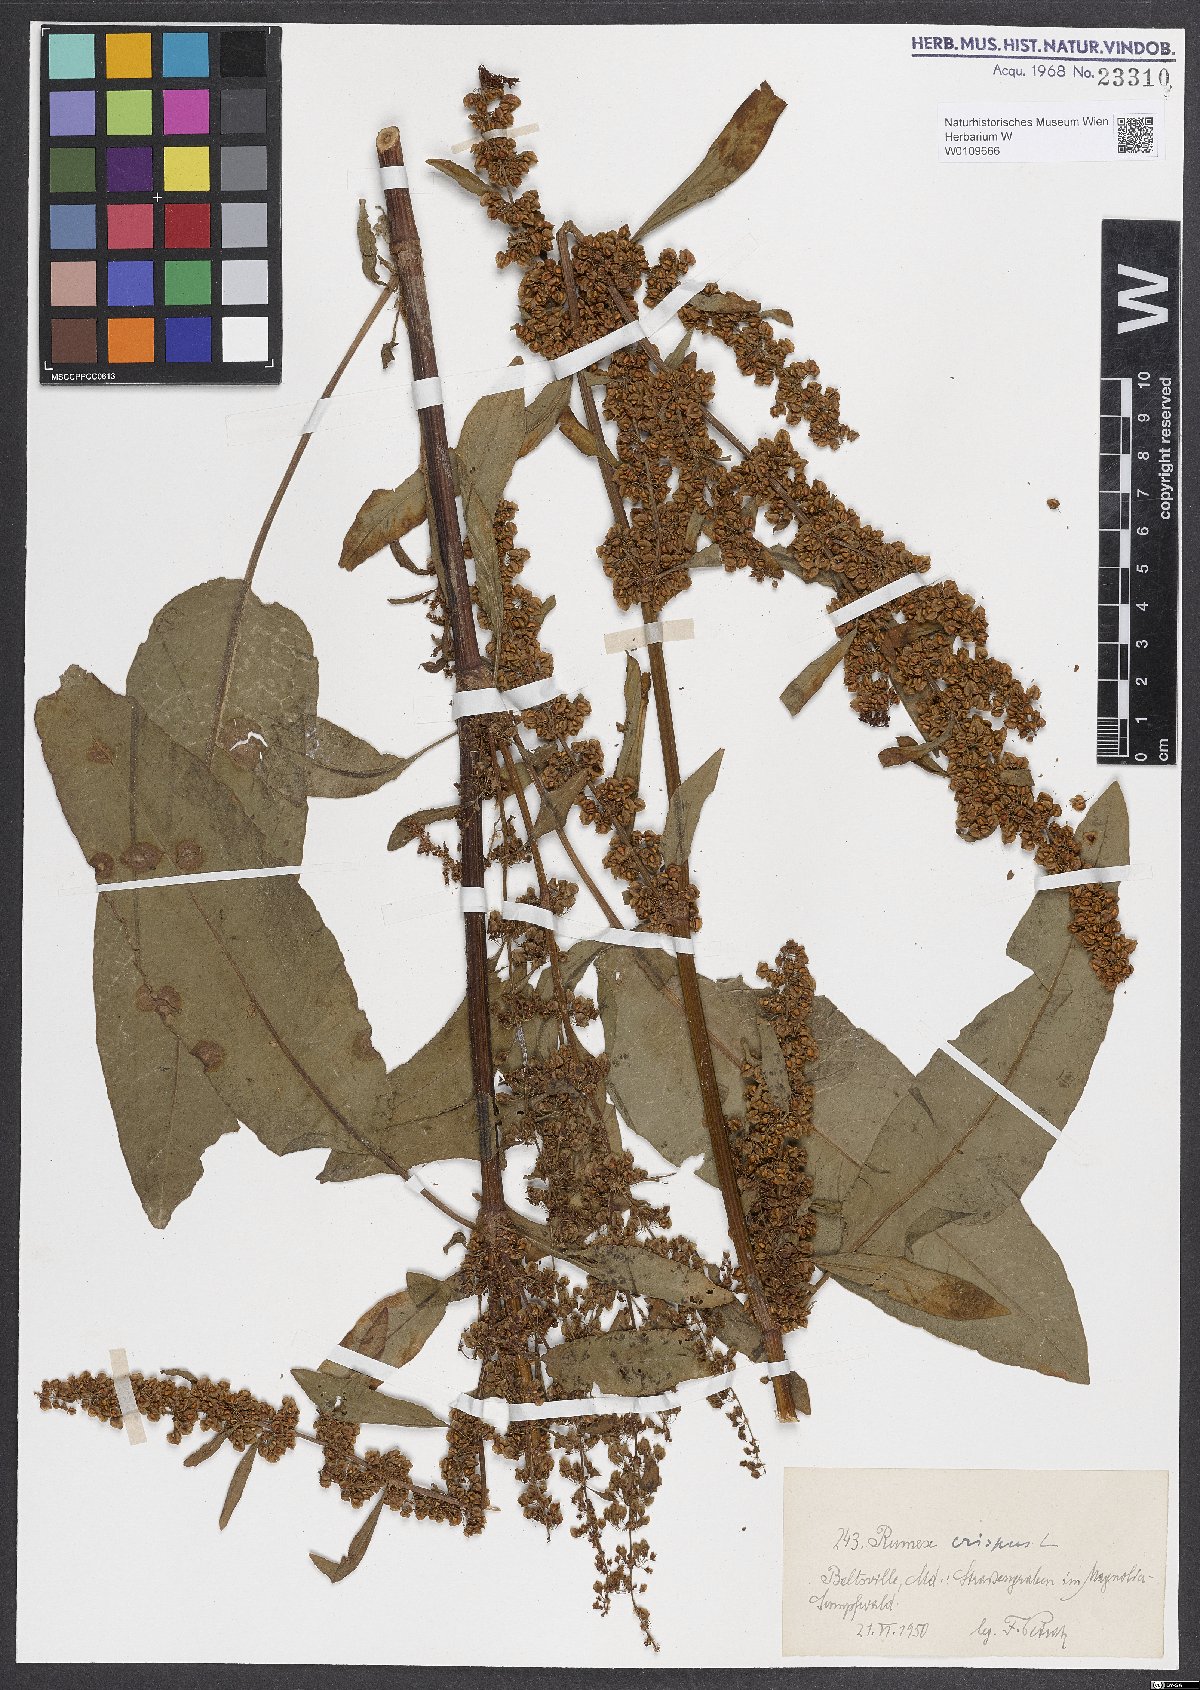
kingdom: Plantae
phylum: Tracheophyta
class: Magnoliopsida
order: Caryophyllales
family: Polygonaceae
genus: Rumex
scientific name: Rumex crispus
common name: Curled dock
